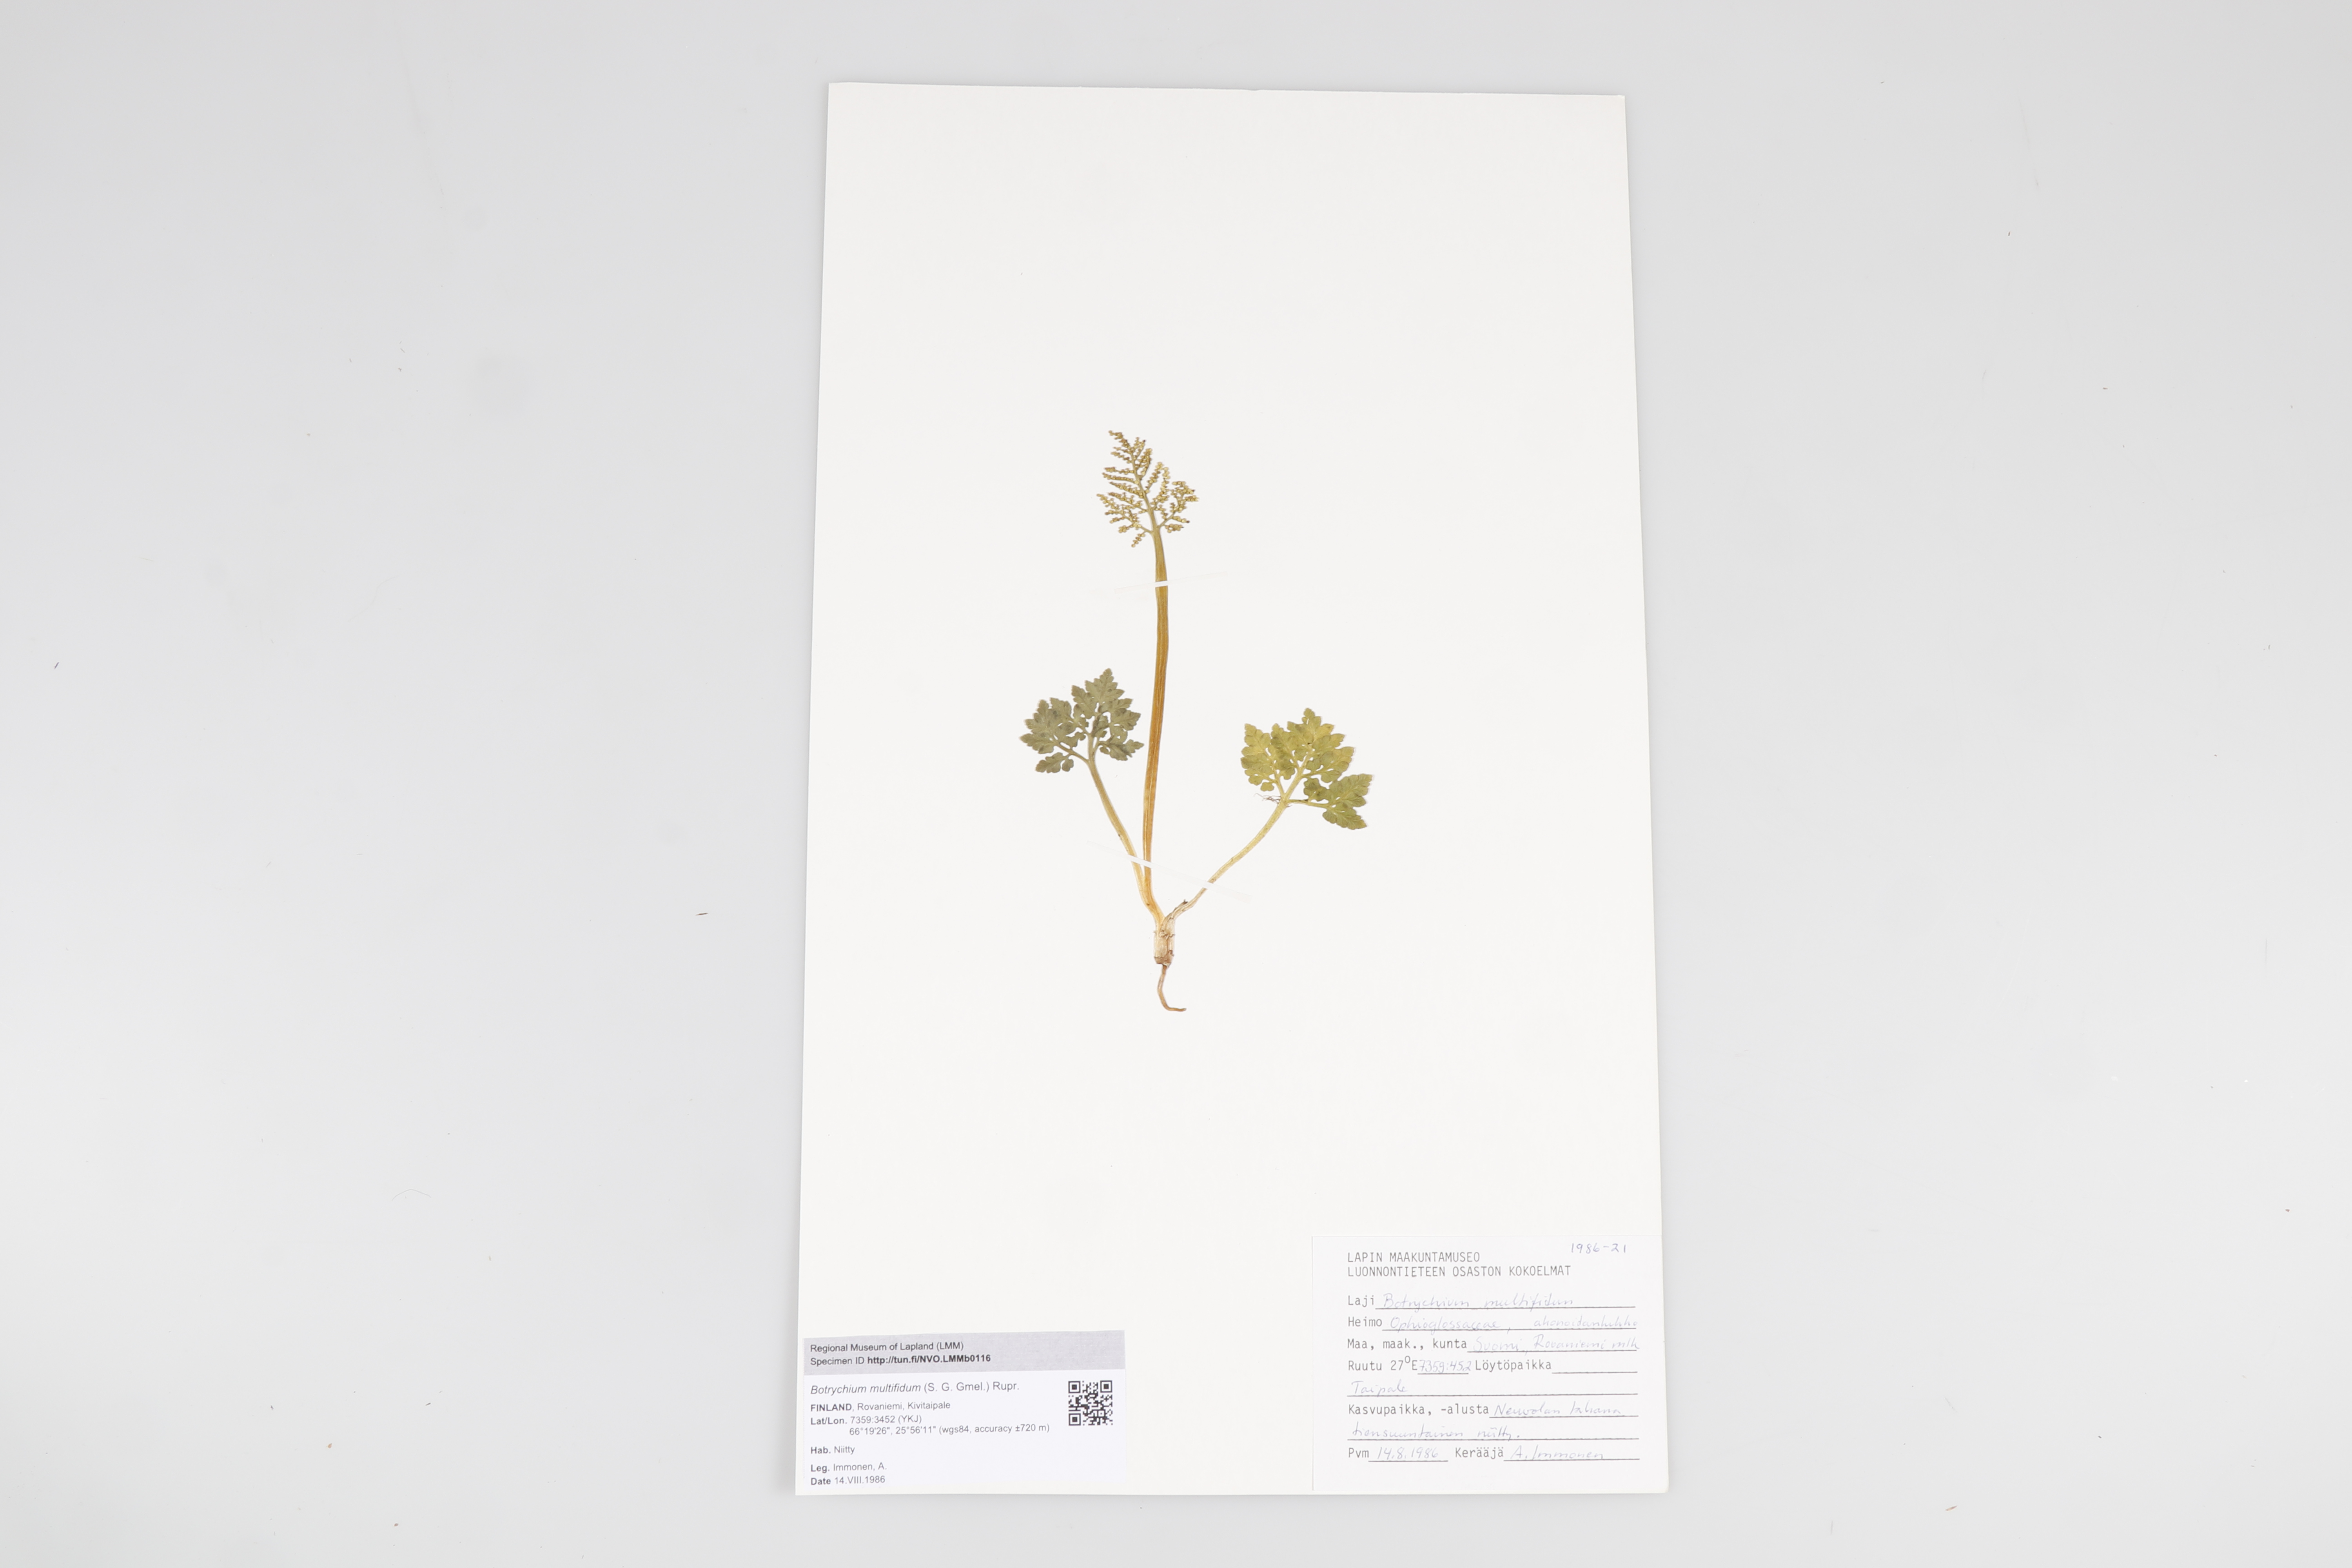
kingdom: Plantae
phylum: Tracheophyta
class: Polypodiopsida
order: Ophioglossales
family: Ophioglossaceae
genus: Sceptridium
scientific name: Sceptridium multifidum
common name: Leathery grape fern
